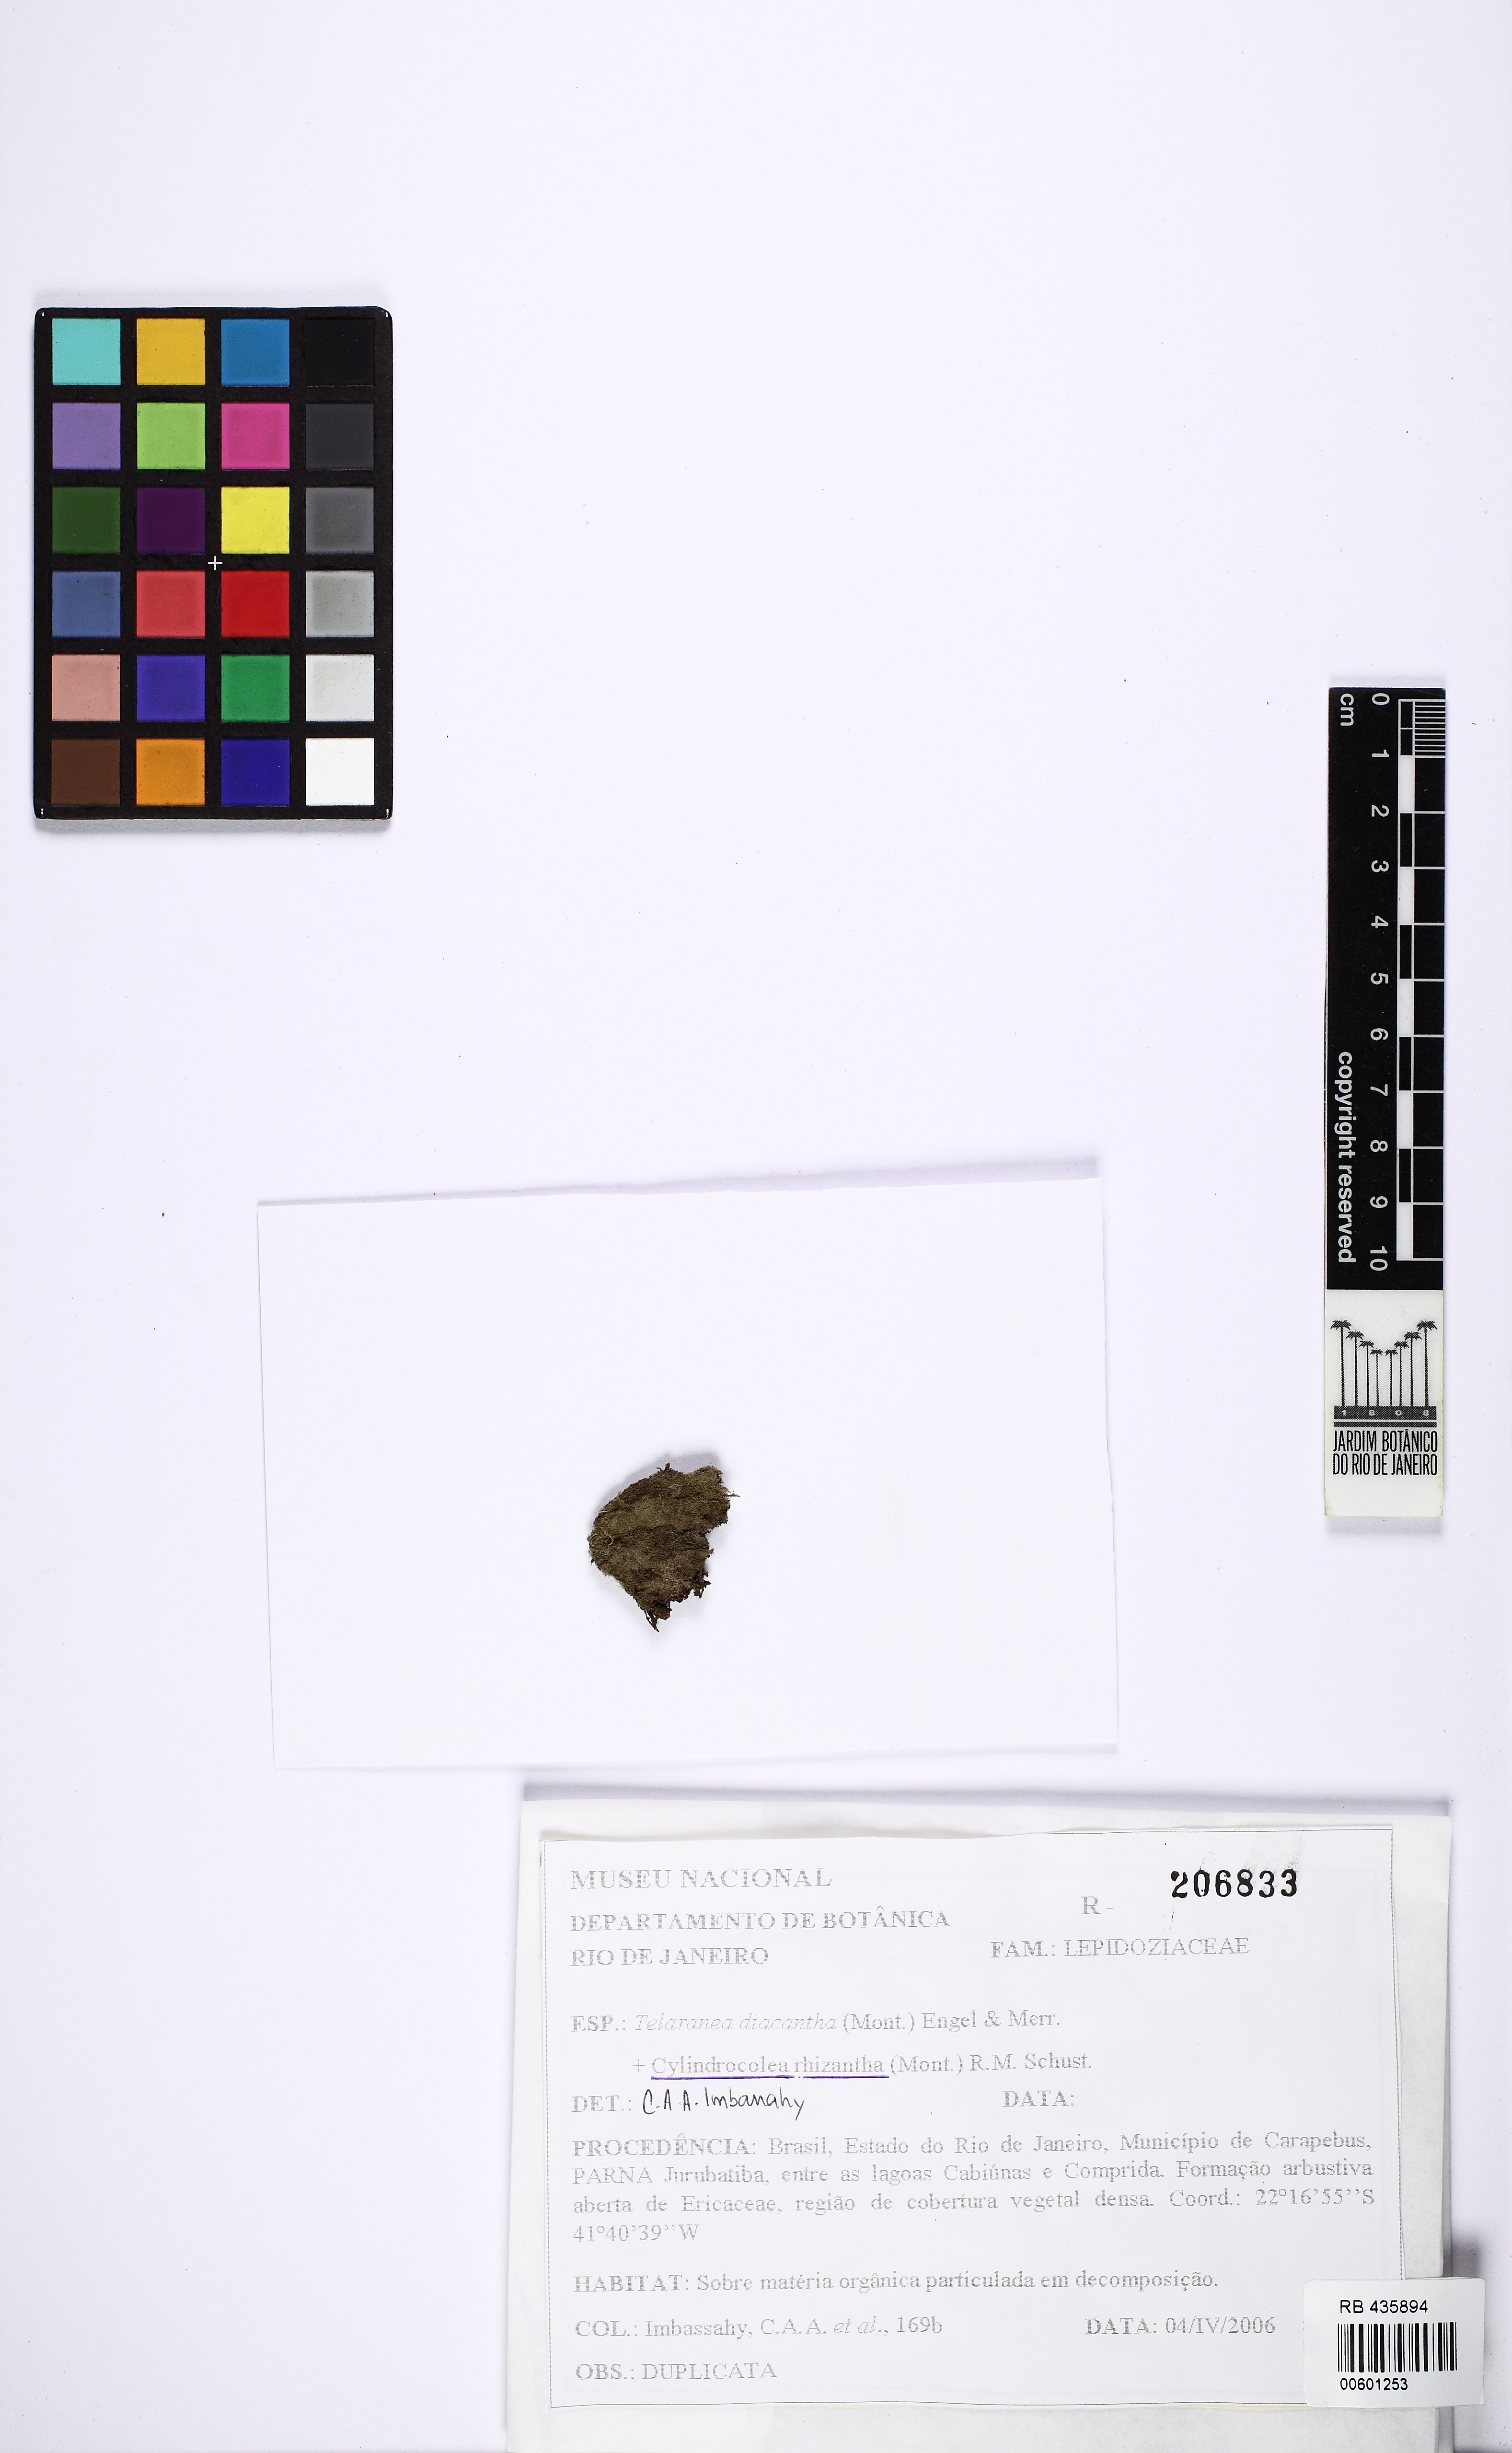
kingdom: Plantae
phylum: Marchantiophyta
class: Jungermanniopsida
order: Jungermanniales
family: Lepidoziaceae
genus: Telaranea
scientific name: Telaranea diacantha
